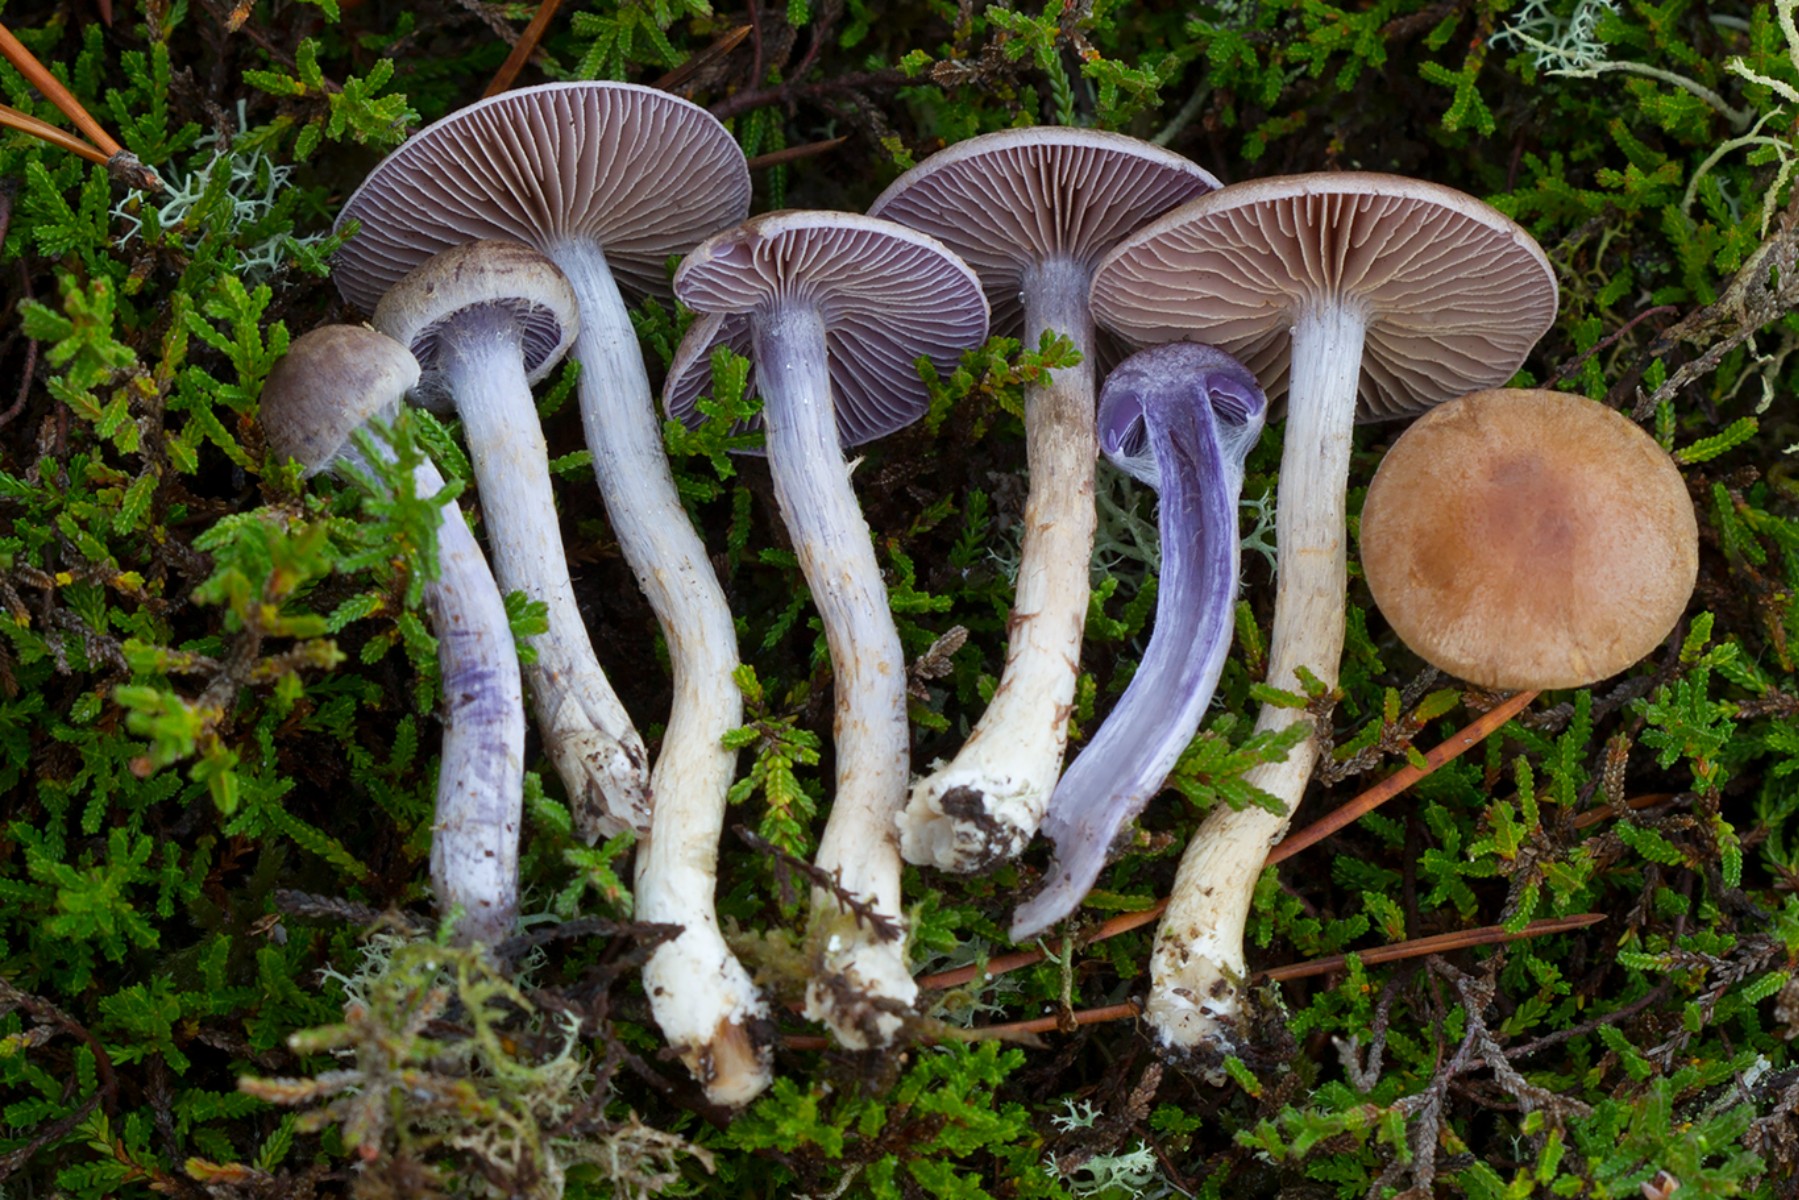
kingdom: Fungi
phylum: Basidiomycota
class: Agaricomycetes
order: Agaricales
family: Cortinariaceae
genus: Cortinarius
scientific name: Cortinarius anomalellus
